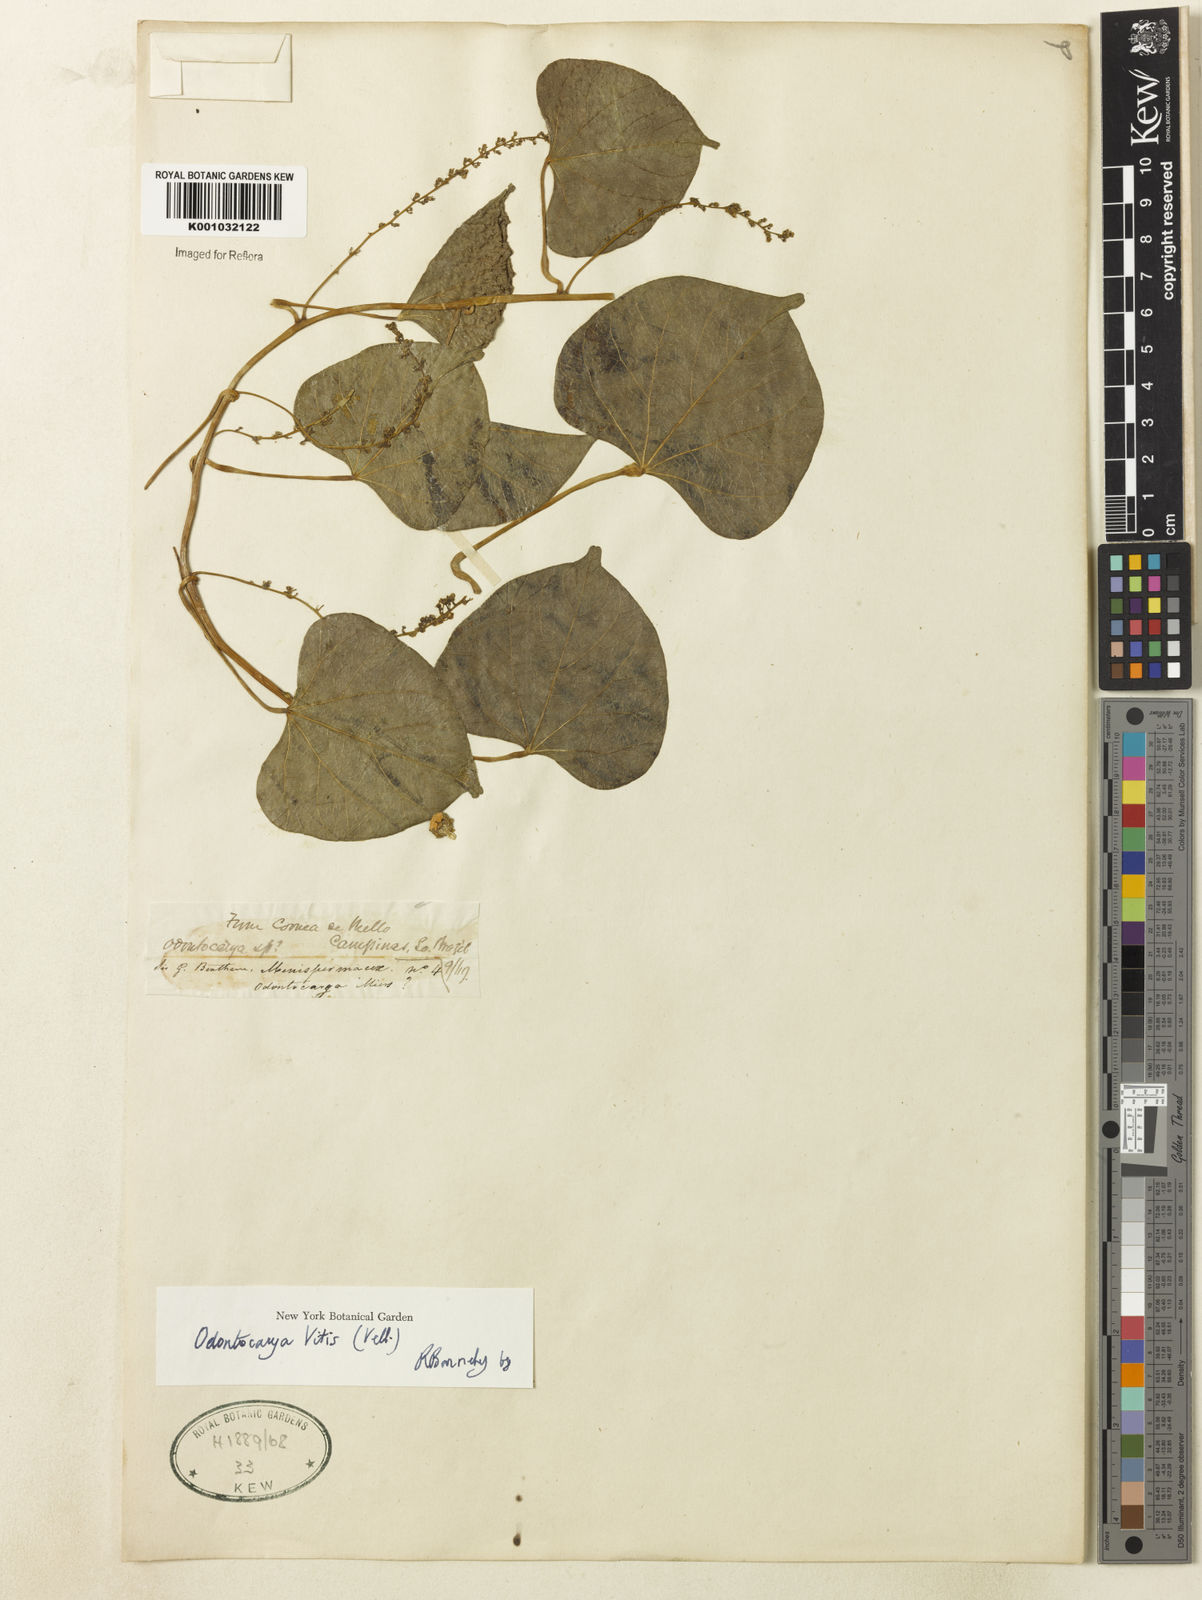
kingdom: Plantae
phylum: Tracheophyta
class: Magnoliopsida
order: Ranunculales
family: Menispermaceae
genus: Odontocarya
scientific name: Odontocarya
